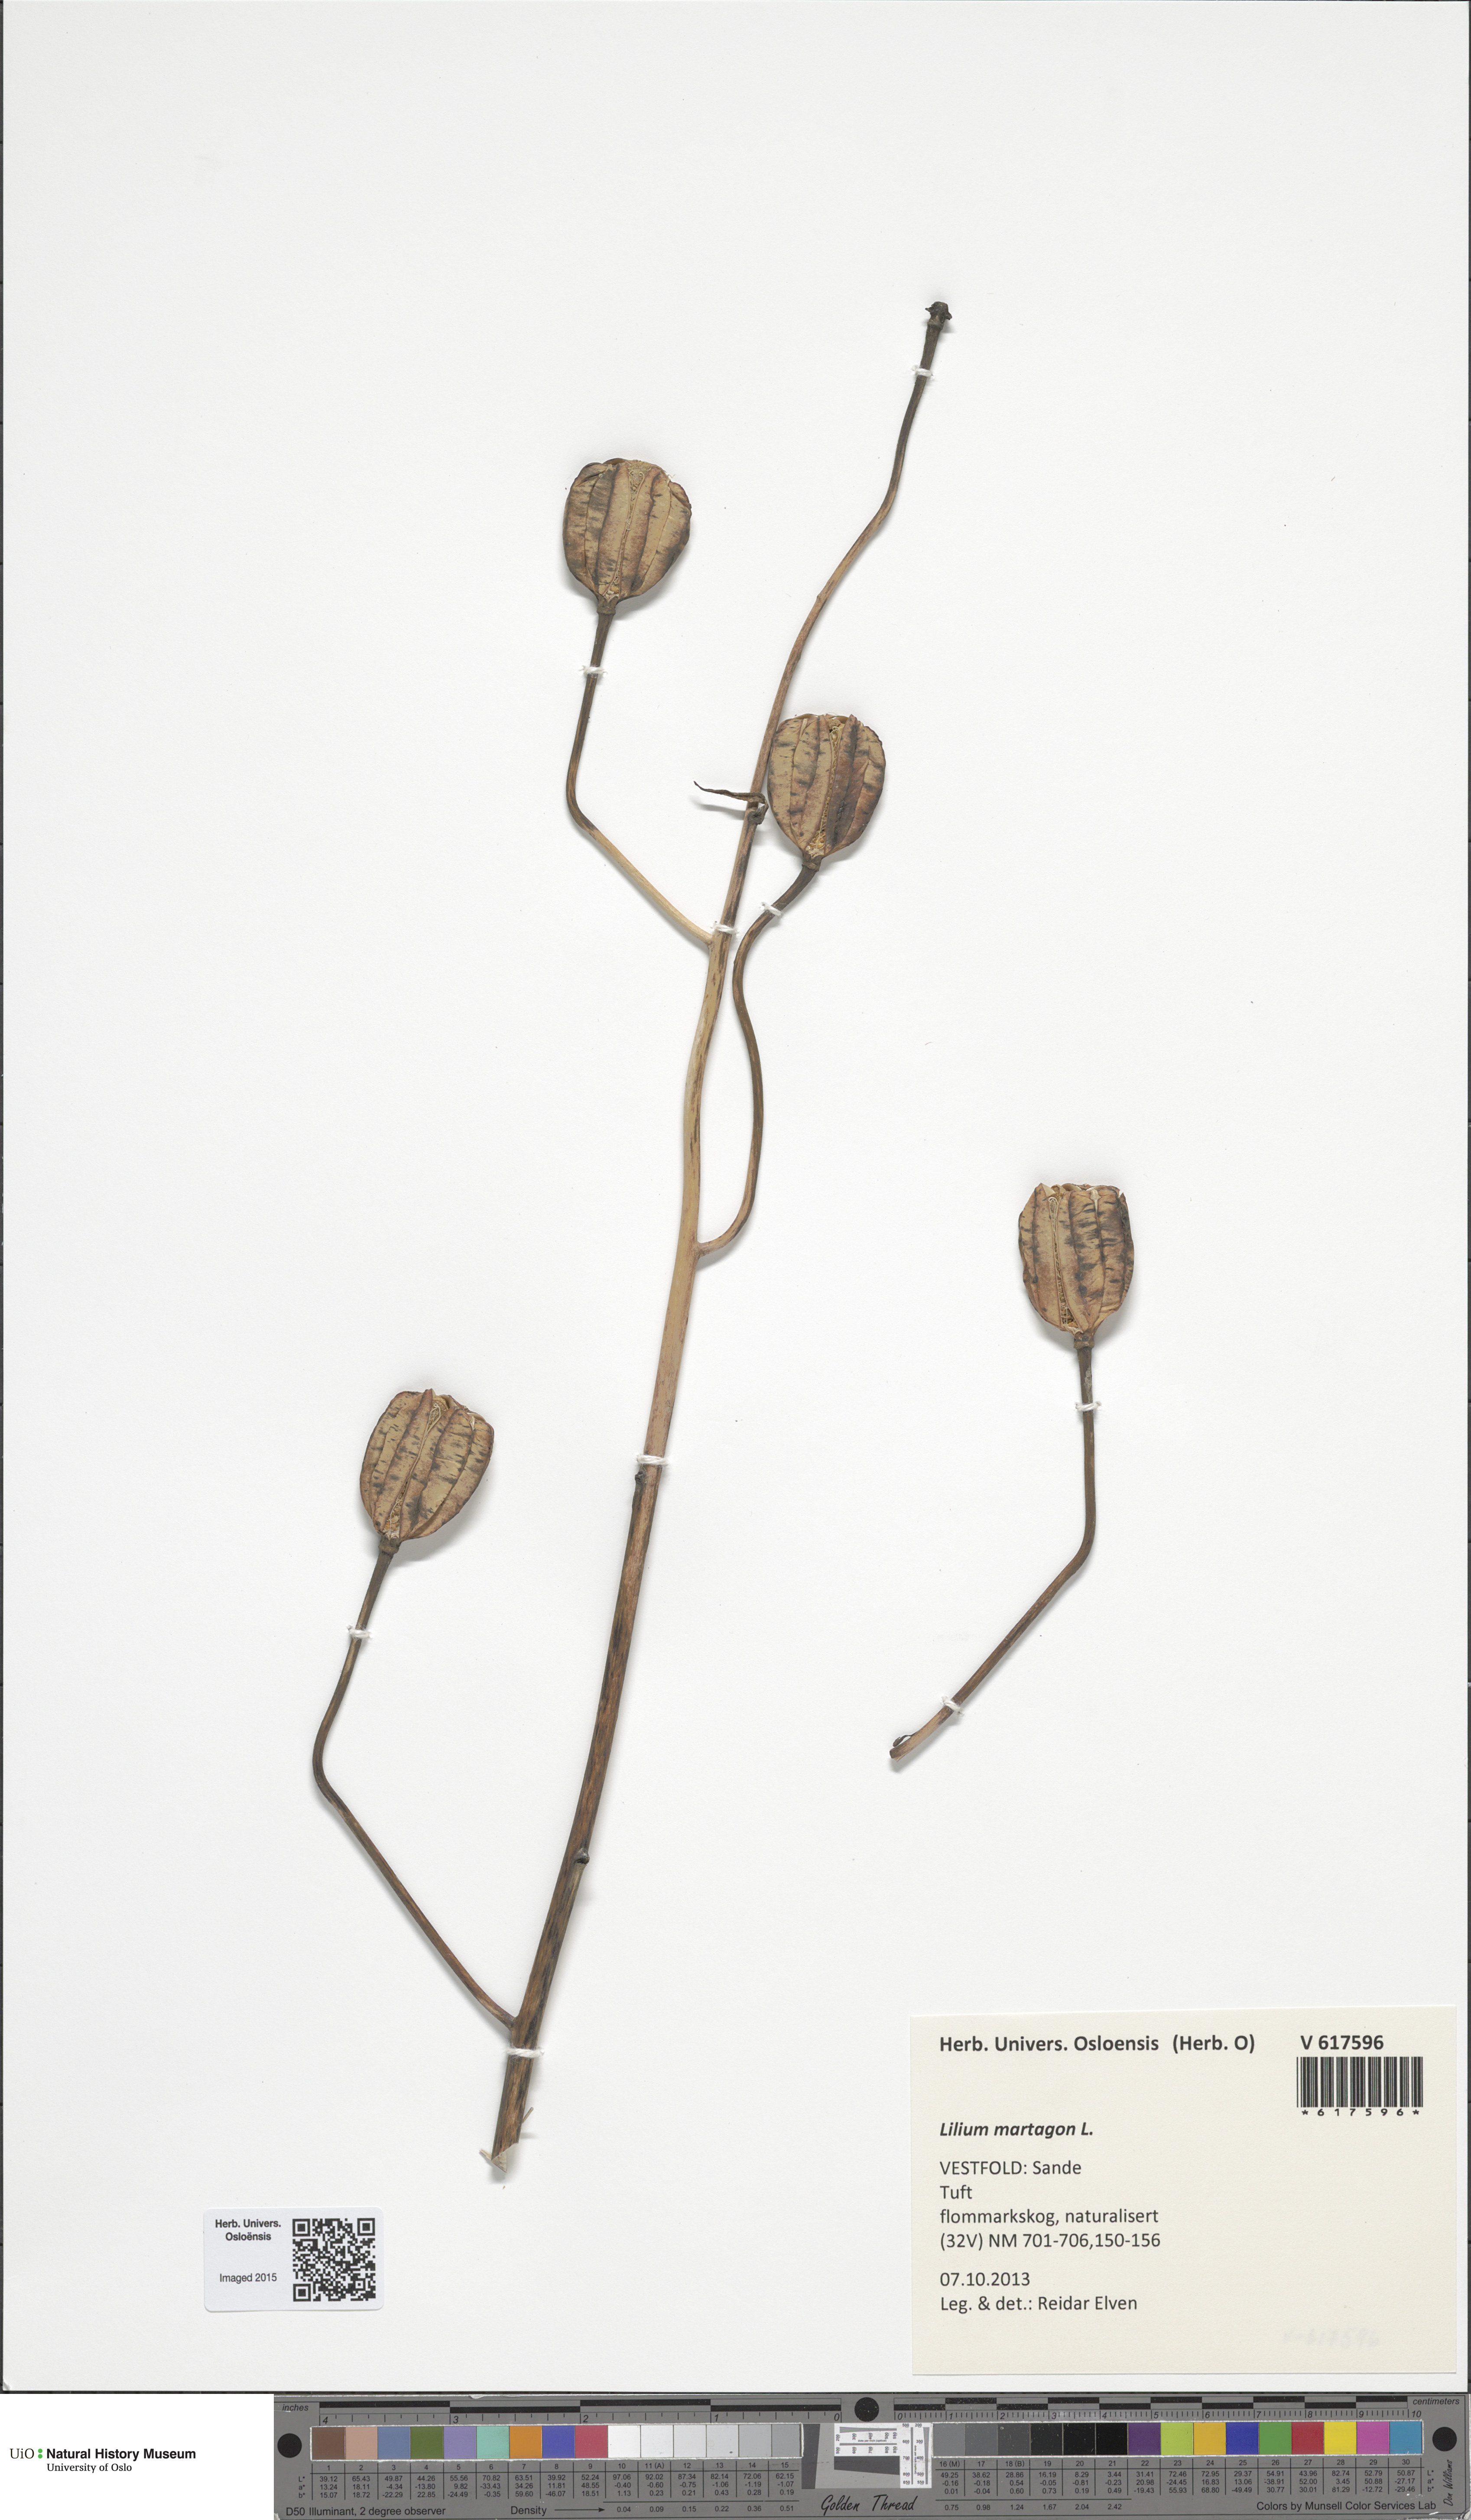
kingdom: Plantae
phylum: Tracheophyta
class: Liliopsida
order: Liliales
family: Liliaceae
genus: Lilium
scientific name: Lilium martagon
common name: Martagon lily
